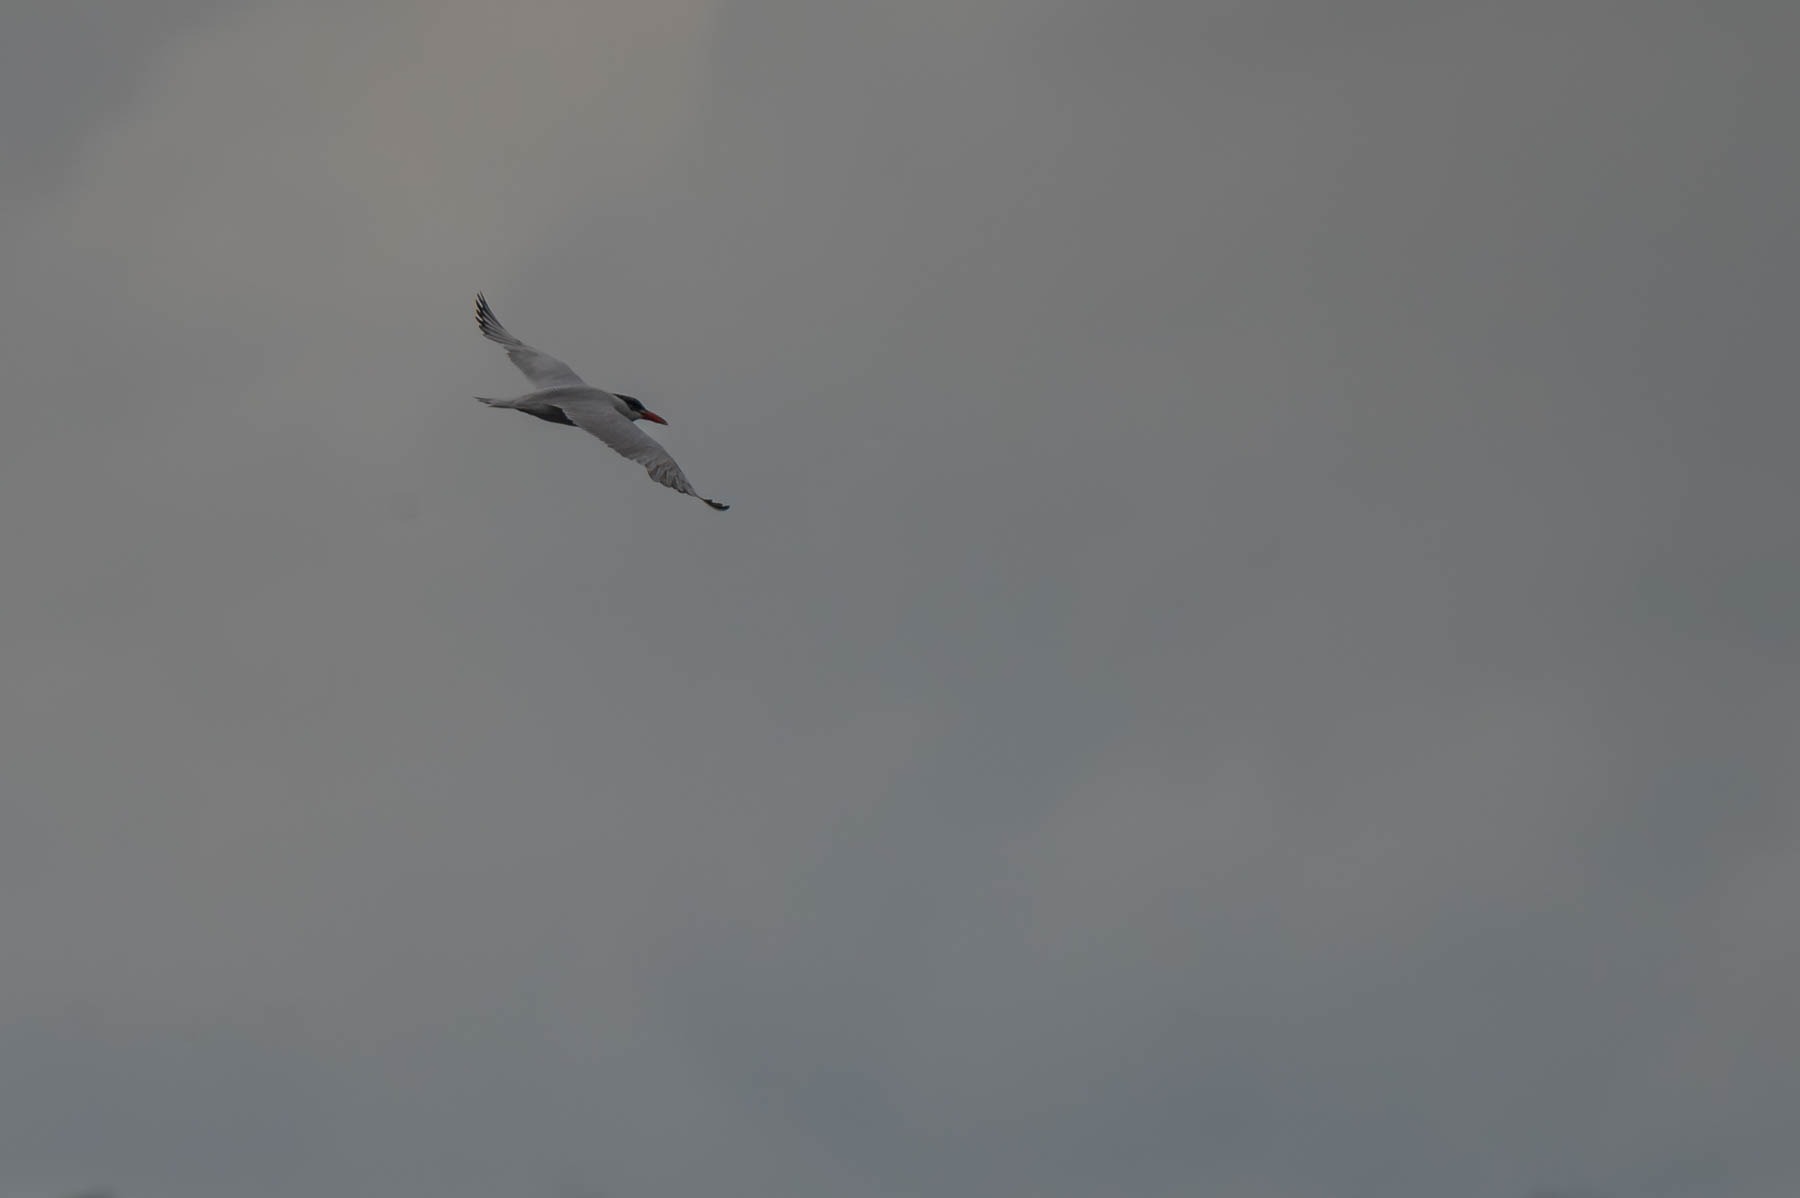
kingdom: Animalia
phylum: Chordata
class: Aves
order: Charadriiformes
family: Laridae
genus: Hydroprogne
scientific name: Hydroprogne caspia
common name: Rovterne
